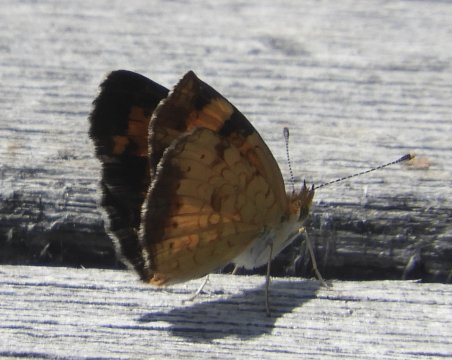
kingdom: Animalia
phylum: Arthropoda
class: Insecta
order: Lepidoptera
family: Nymphalidae
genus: Phyciodes
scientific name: Phyciodes
